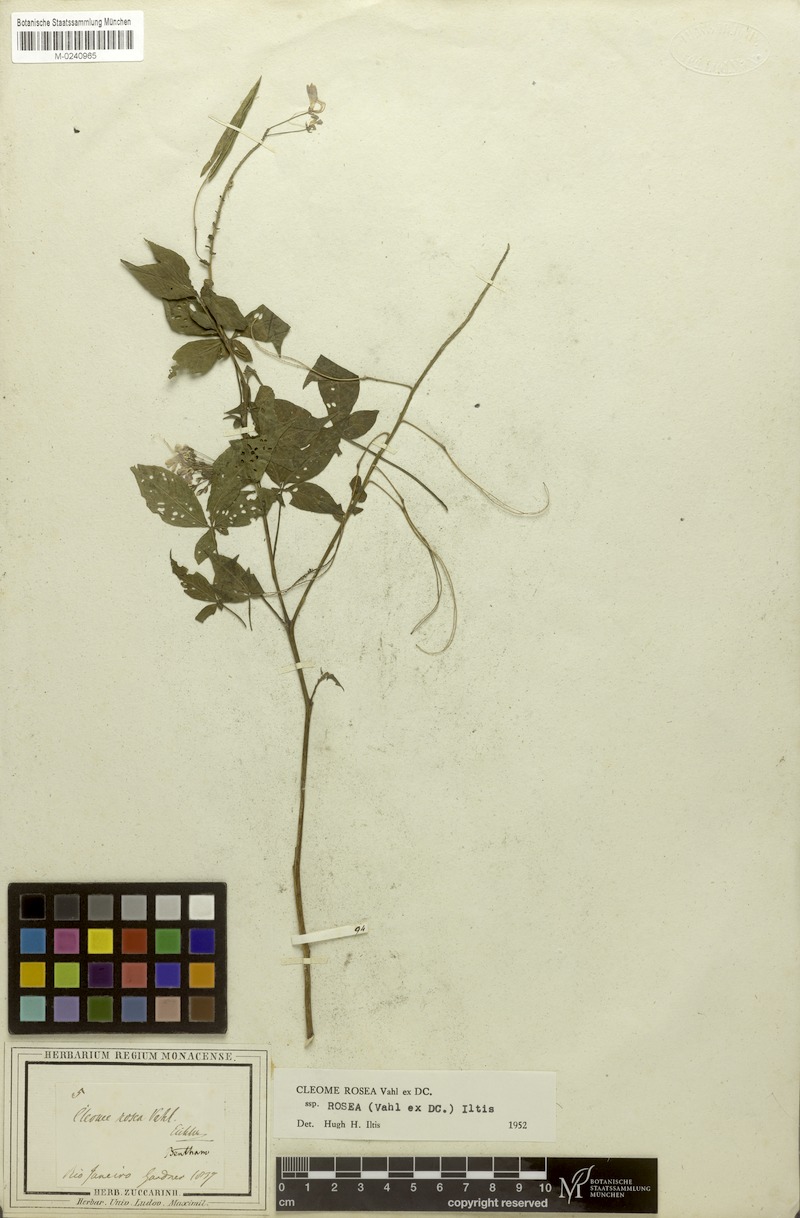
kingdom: Plantae
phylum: Tracheophyta
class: Magnoliopsida
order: Brassicales
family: Cleomaceae
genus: Tarenaya
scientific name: Tarenaya rosea
